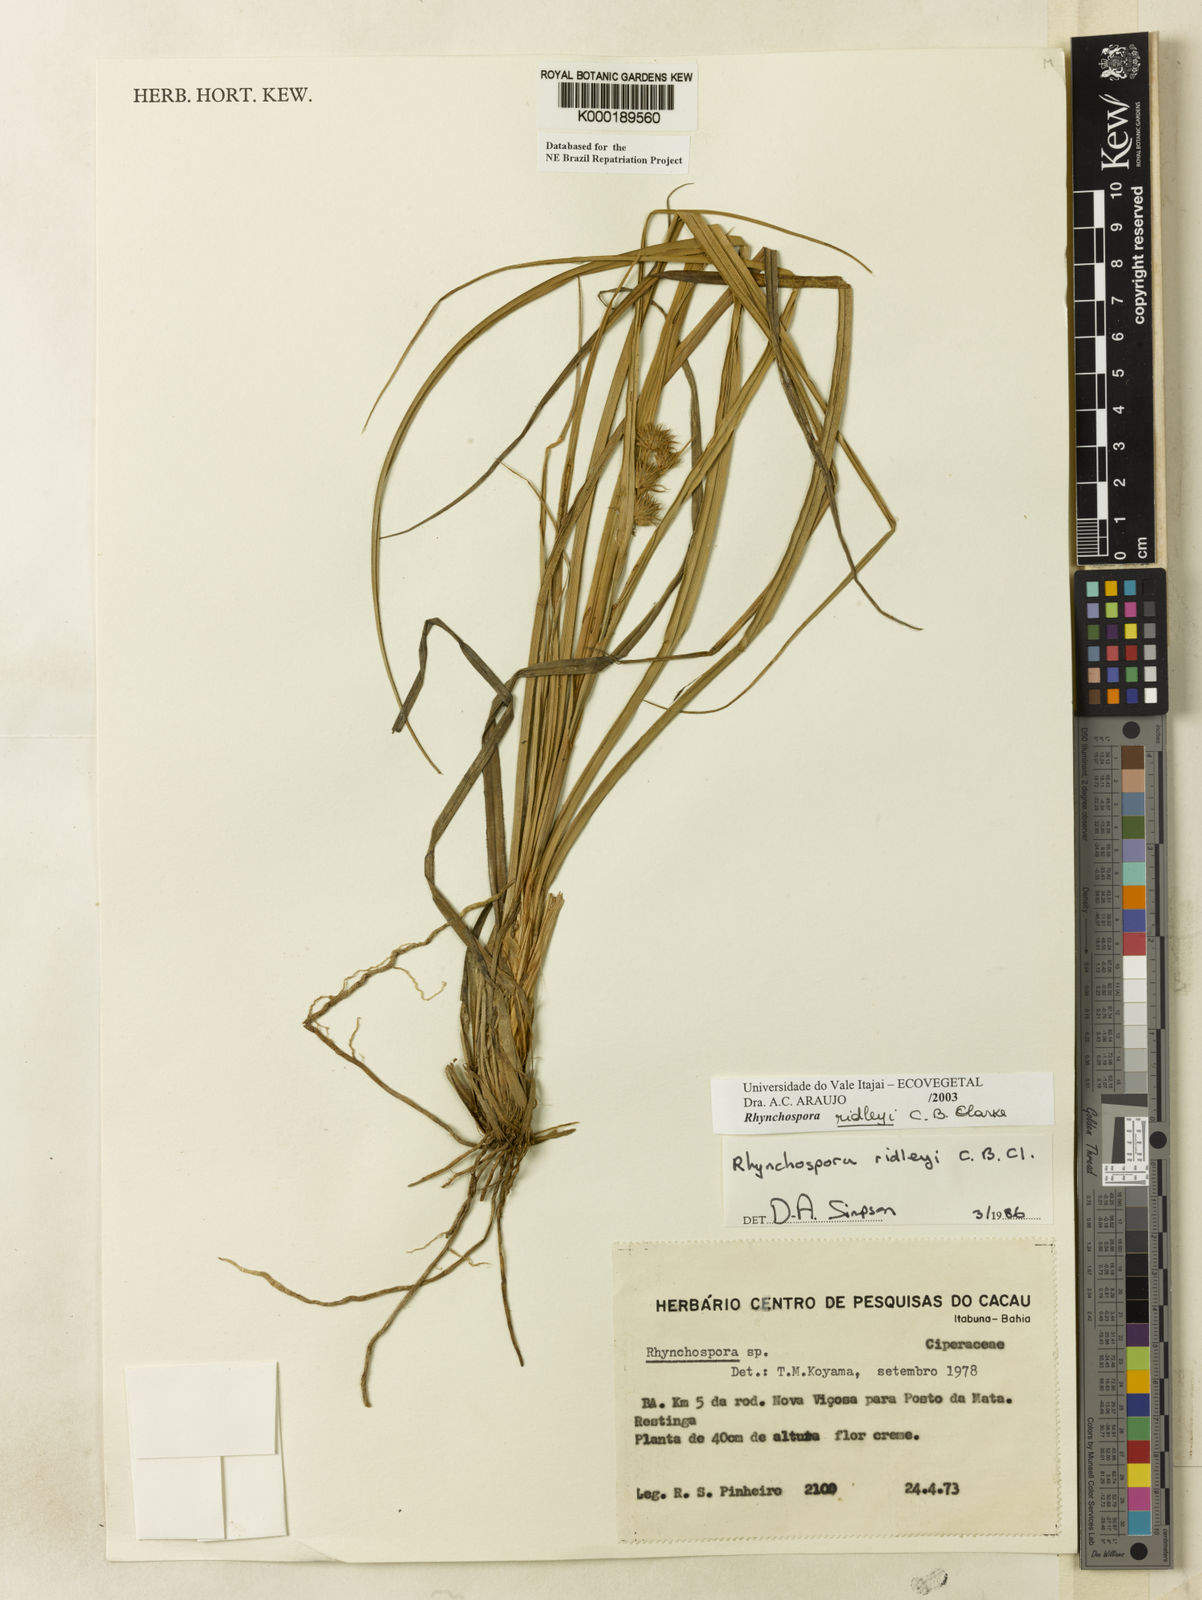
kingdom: Plantae
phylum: Tracheophyta
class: Liliopsida
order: Poales
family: Cyperaceae
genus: Rhynchospora
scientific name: Rhynchospora ridleyi
